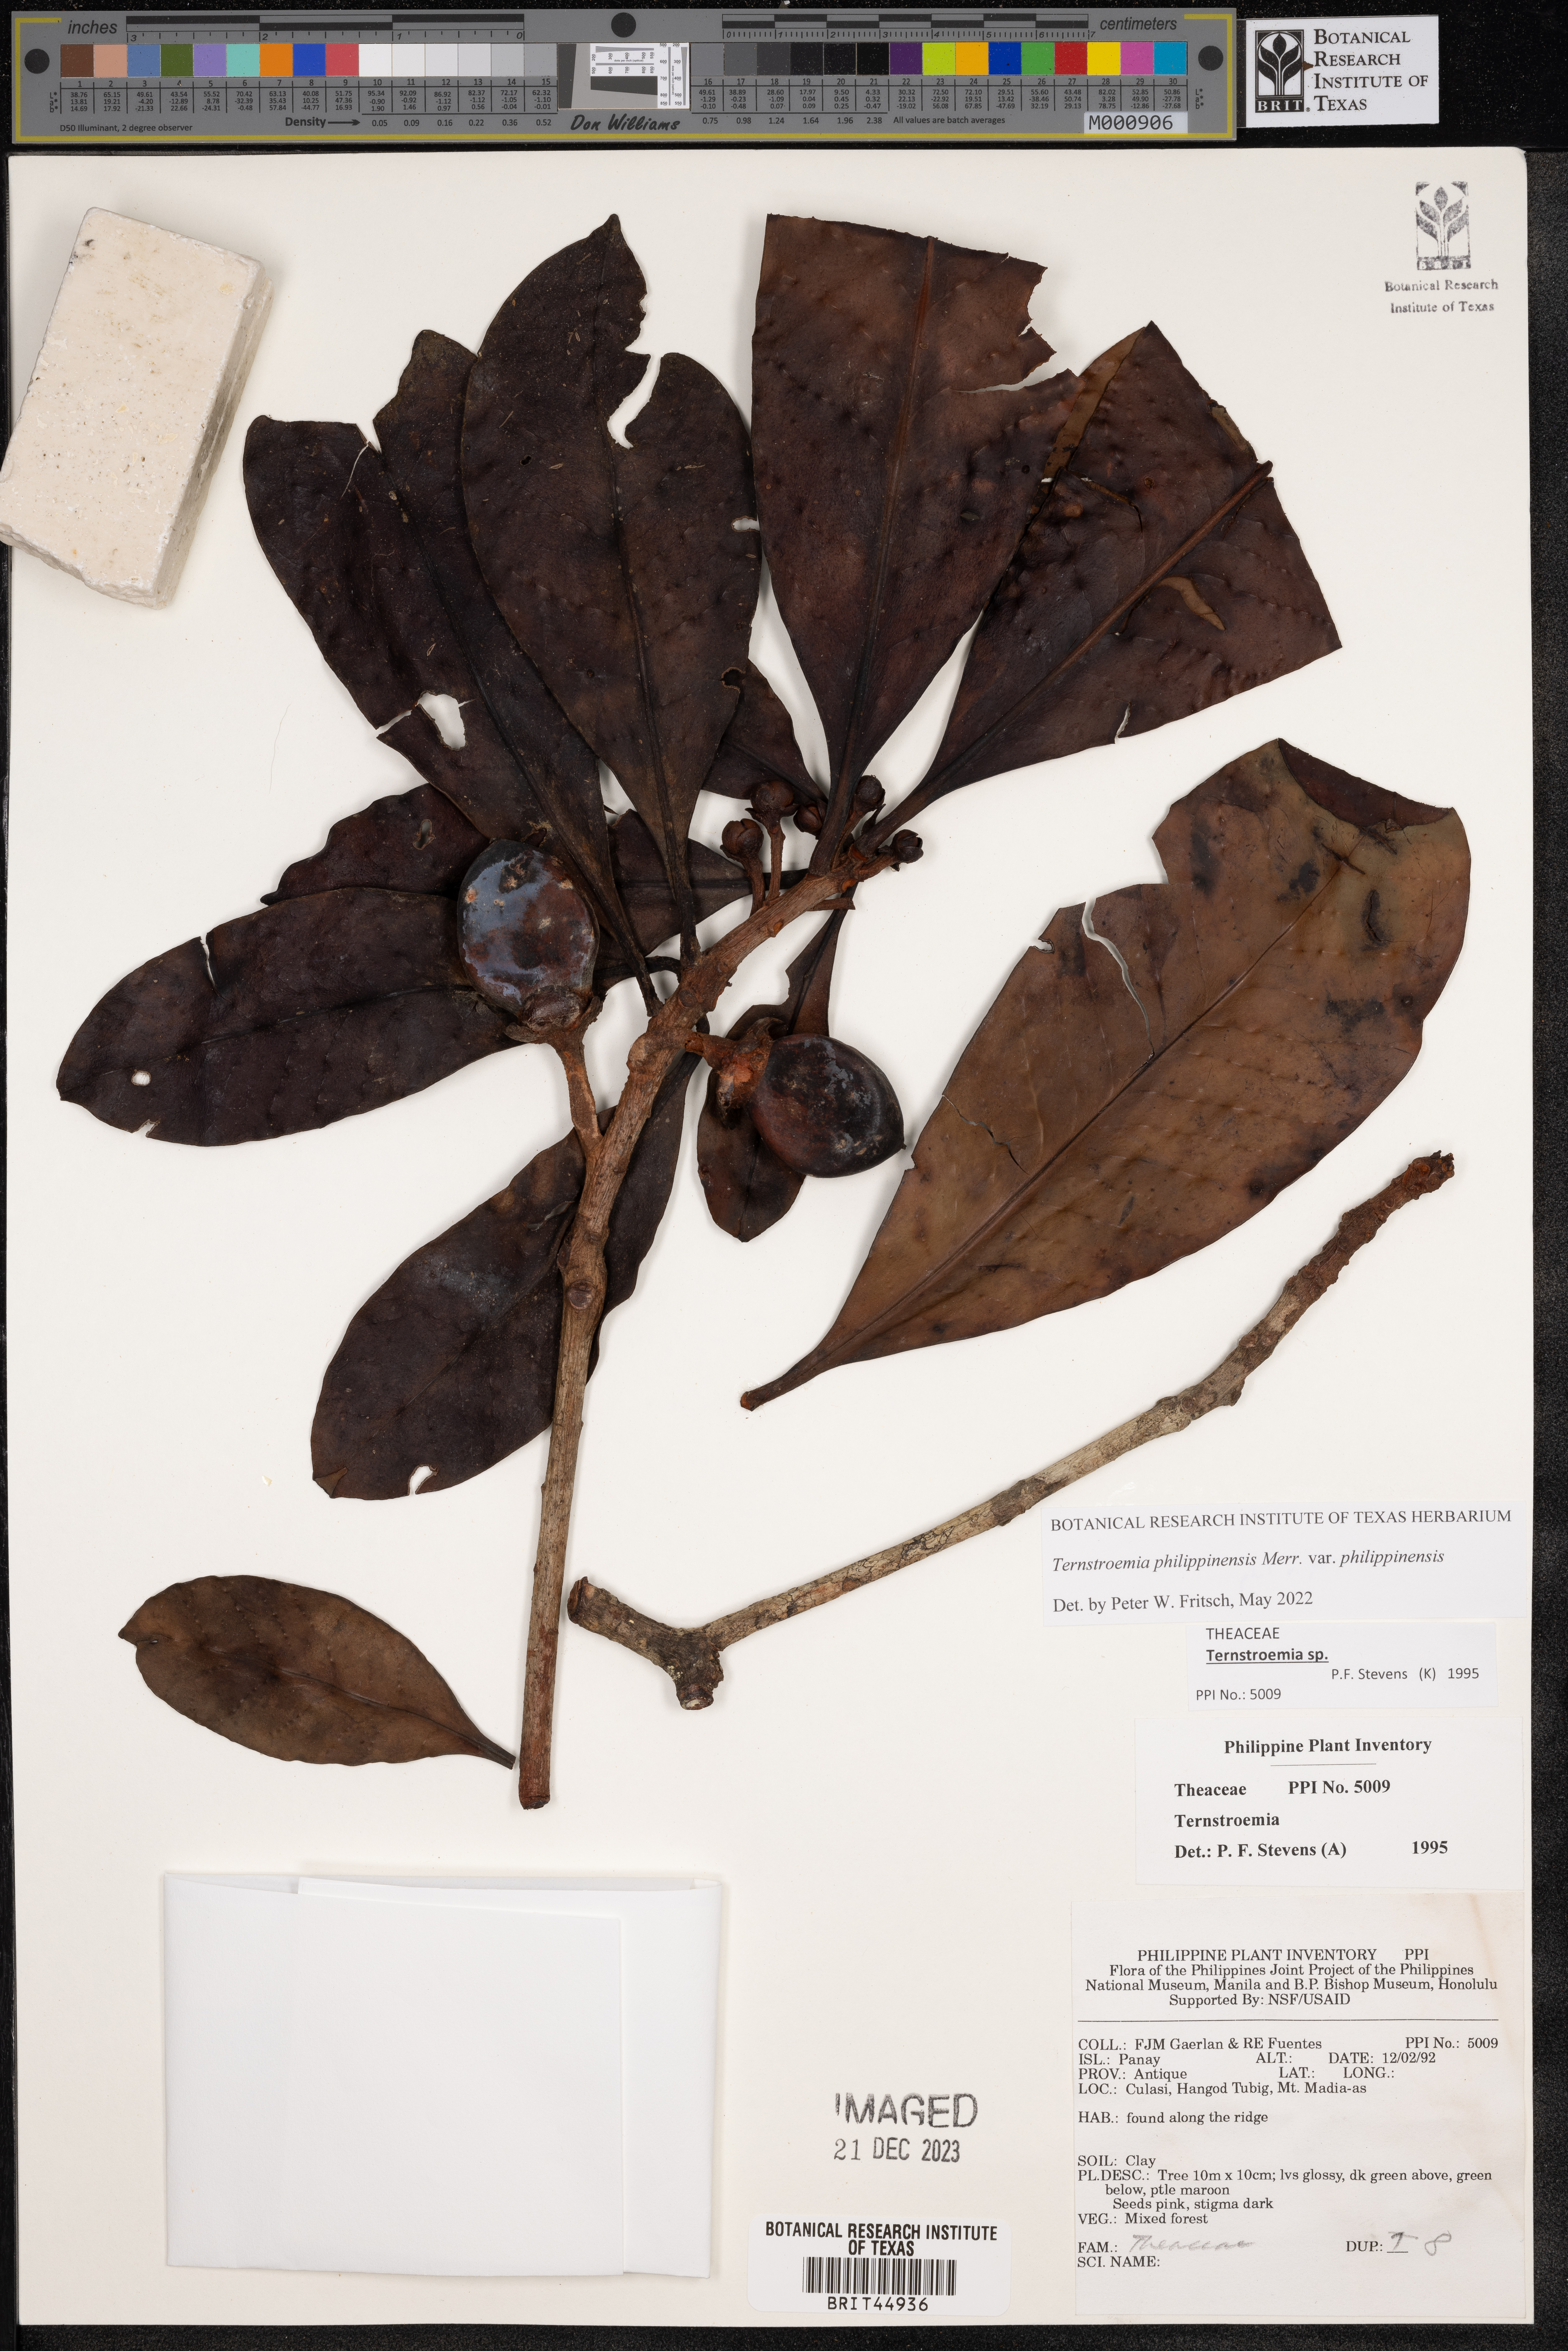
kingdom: Plantae
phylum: Tracheophyta
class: Magnoliopsida
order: Ericales
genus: Ternstroemia
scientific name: Ternstroemia
